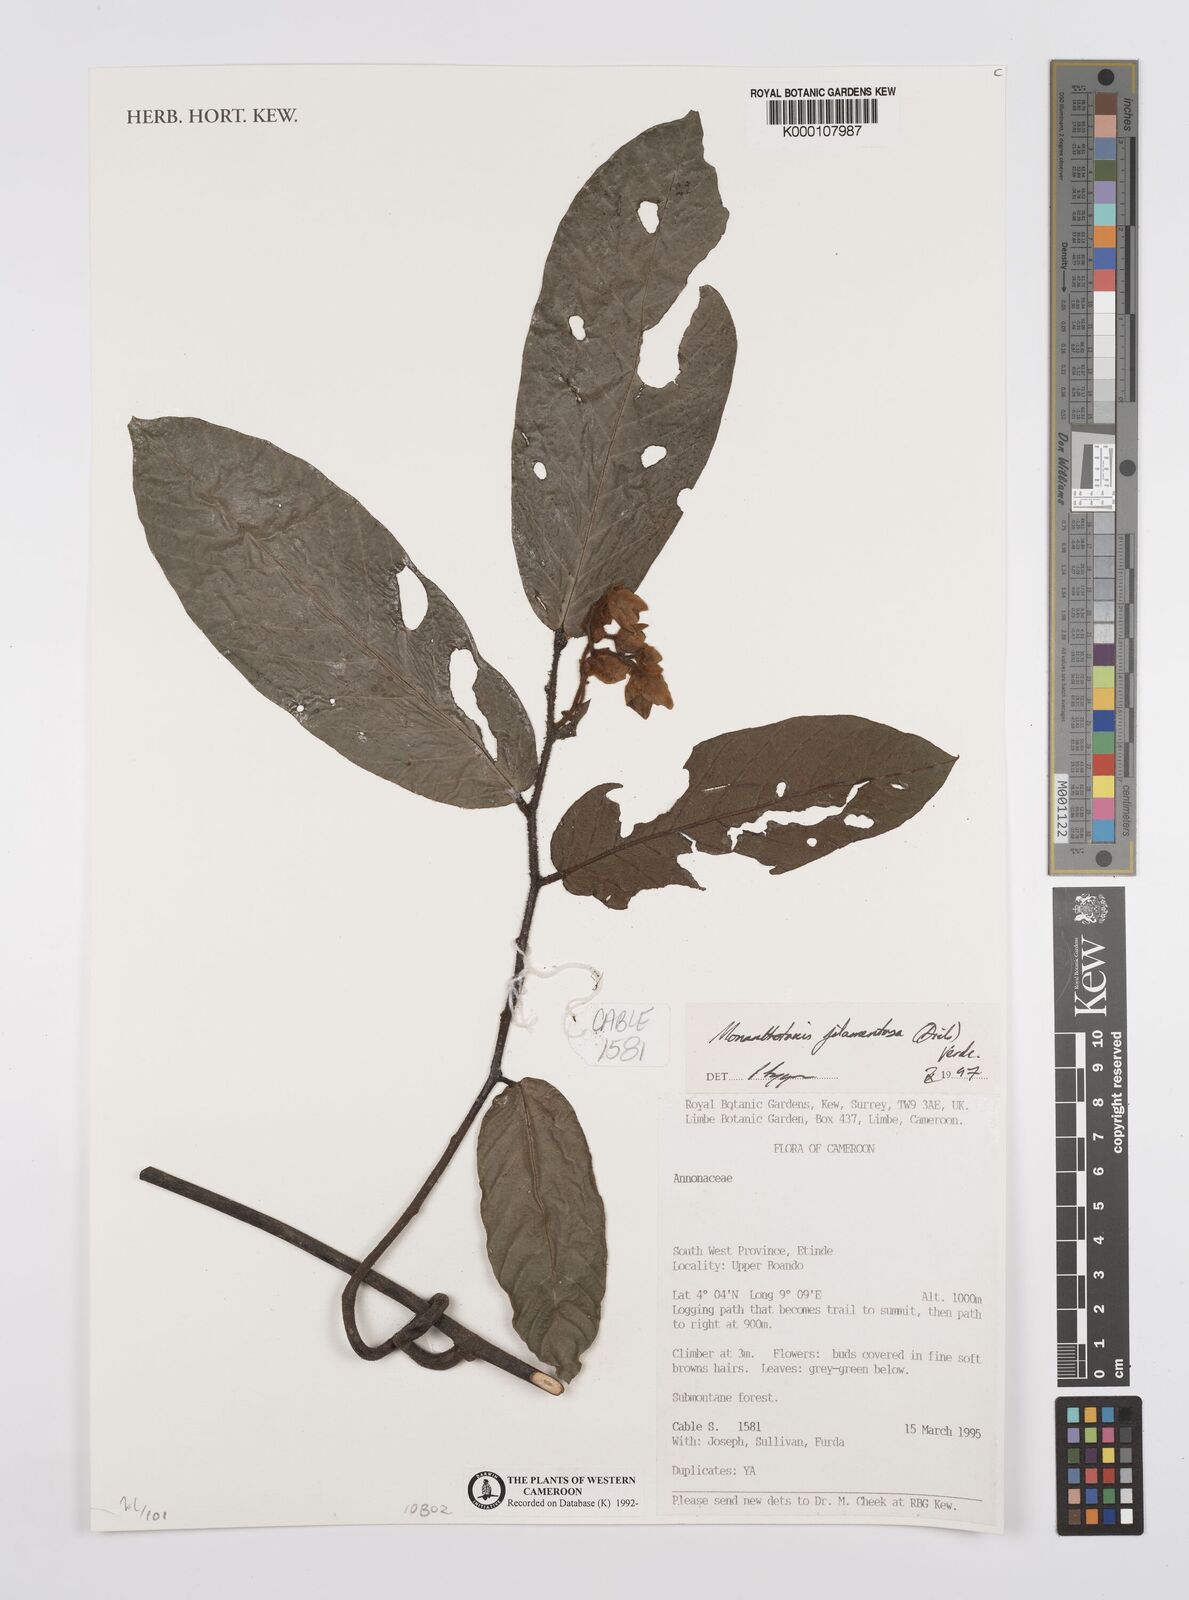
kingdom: Plantae
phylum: Tracheophyta
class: Magnoliopsida
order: Magnoliales
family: Annonaceae
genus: Monanthotaxis
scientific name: Monanthotaxis filamentosa
